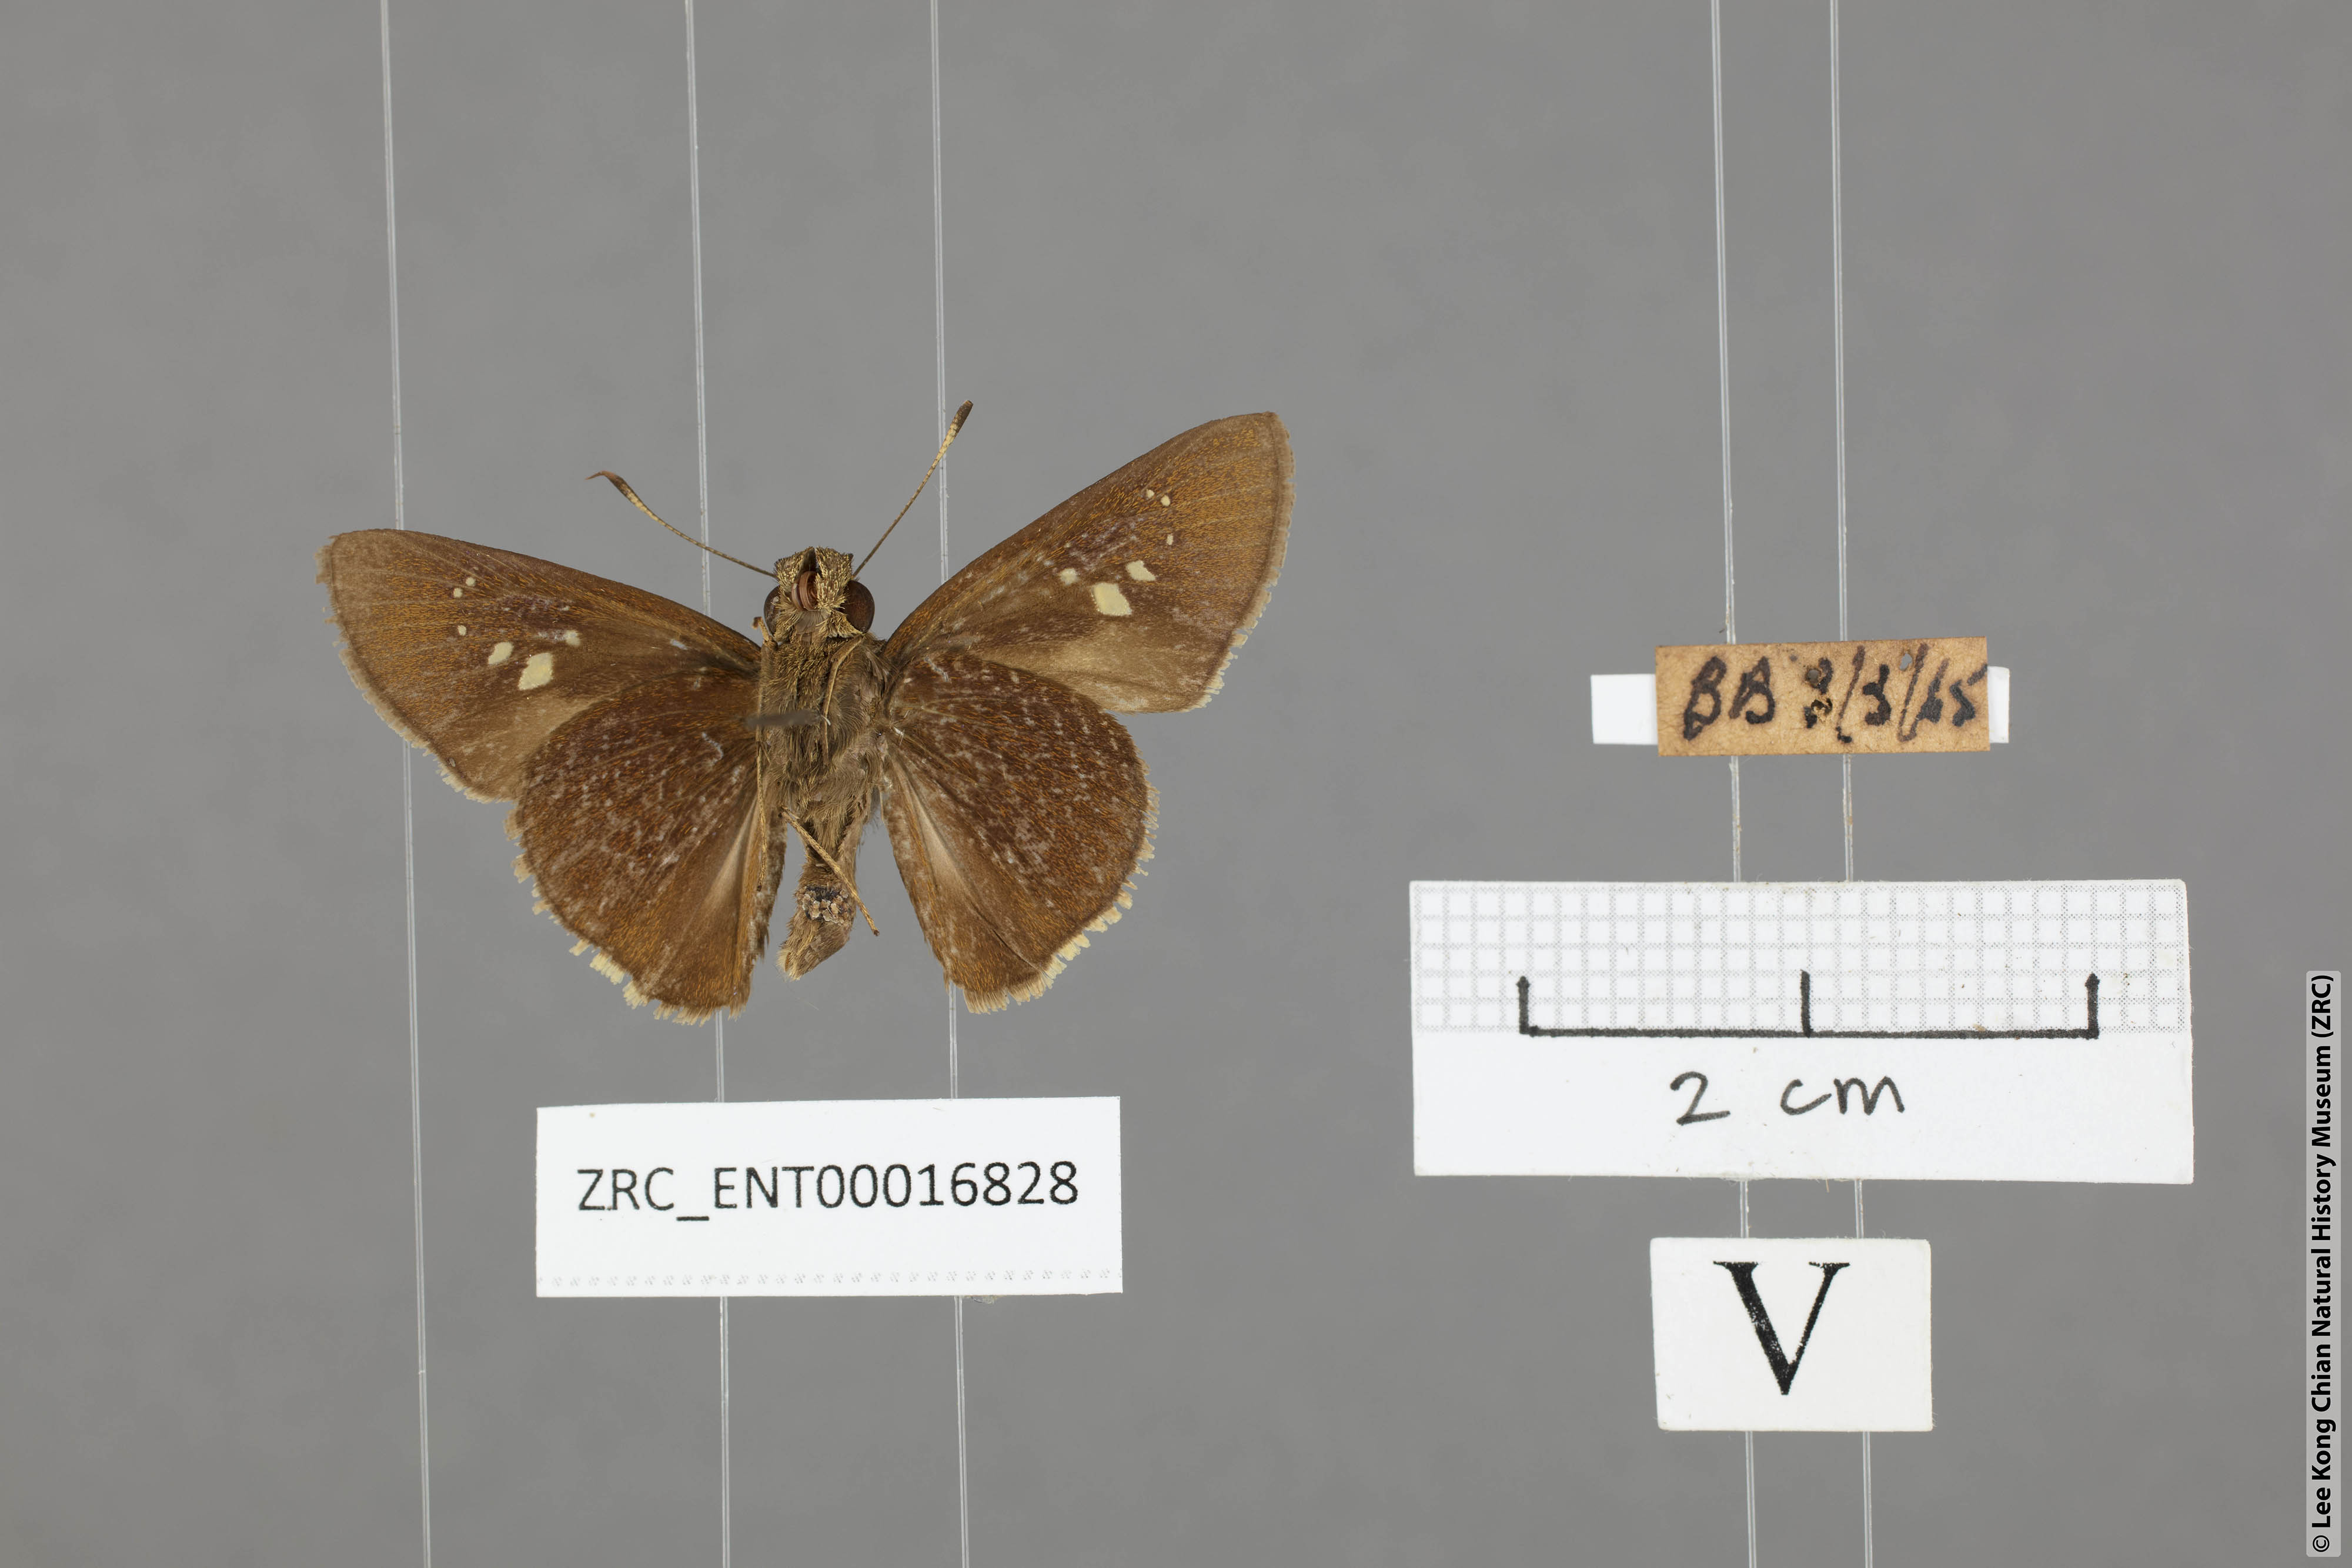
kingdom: Animalia
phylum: Arthropoda
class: Insecta
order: Lepidoptera
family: Hesperiidae
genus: Caltoris
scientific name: Caltoris cormasa
